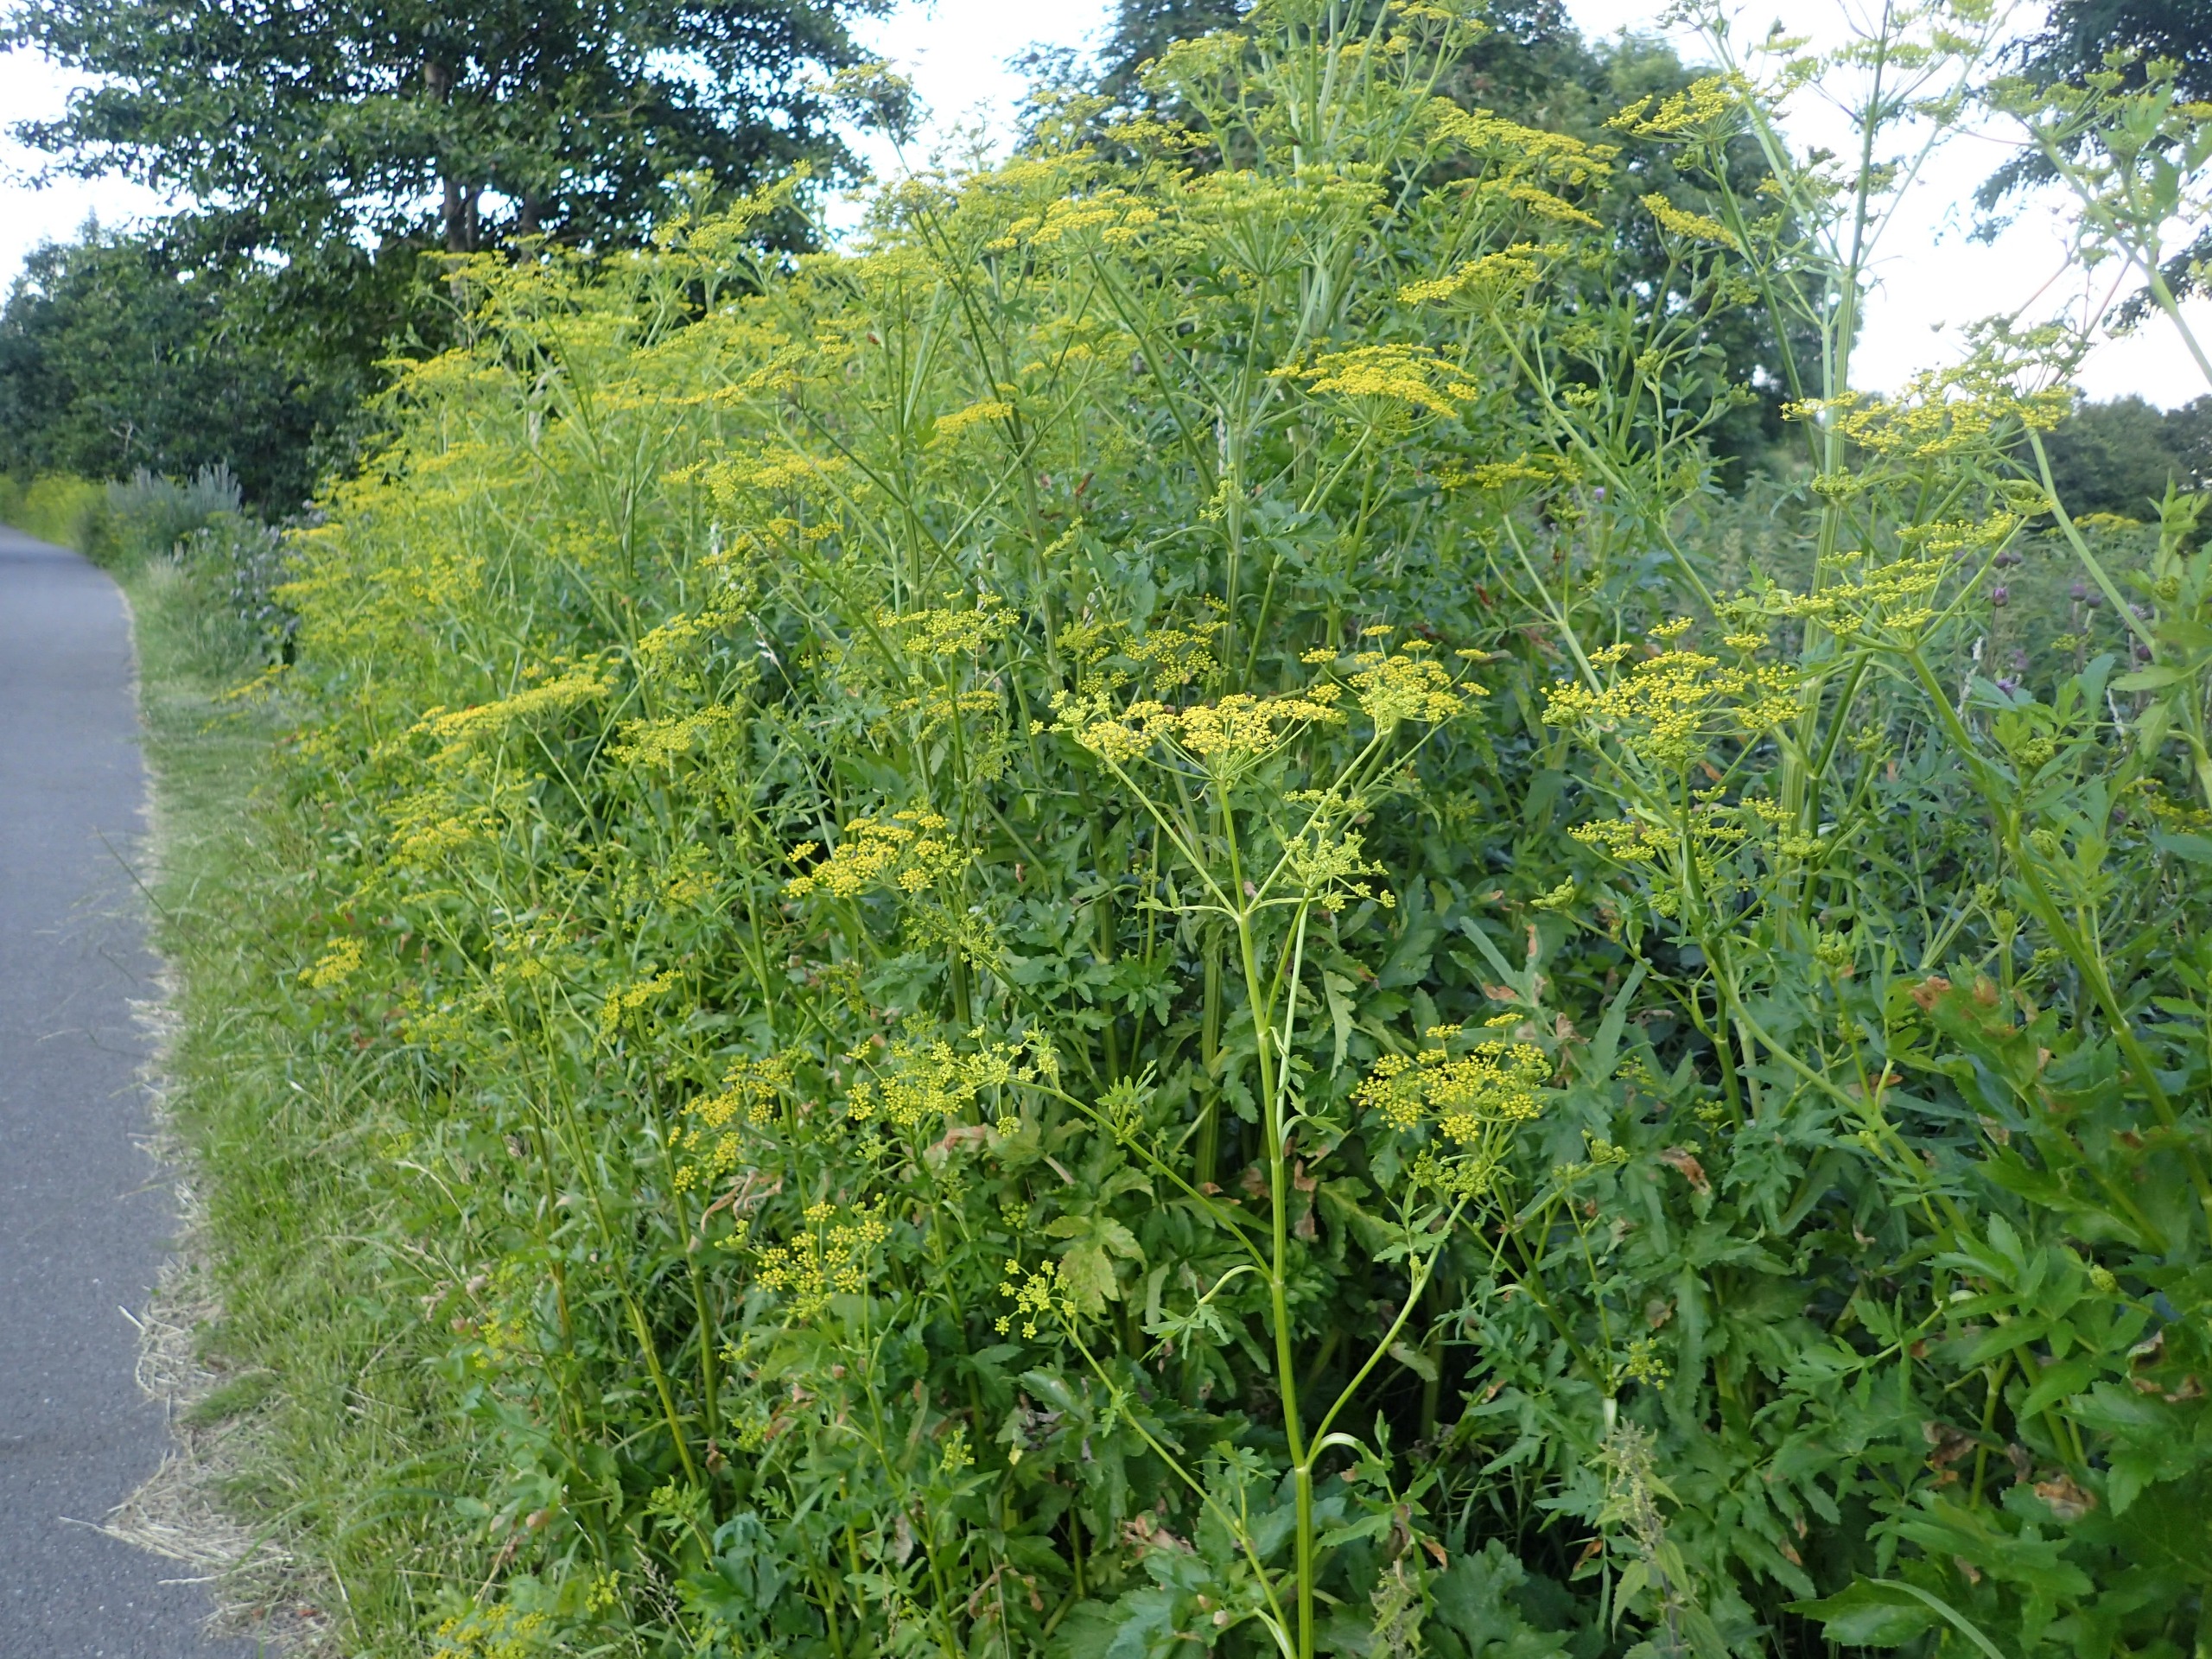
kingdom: Plantae
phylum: Tracheophyta
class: Magnoliopsida
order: Apiales
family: Apiaceae
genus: Pastinaca
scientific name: Pastinaca sativa
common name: Pastinak
